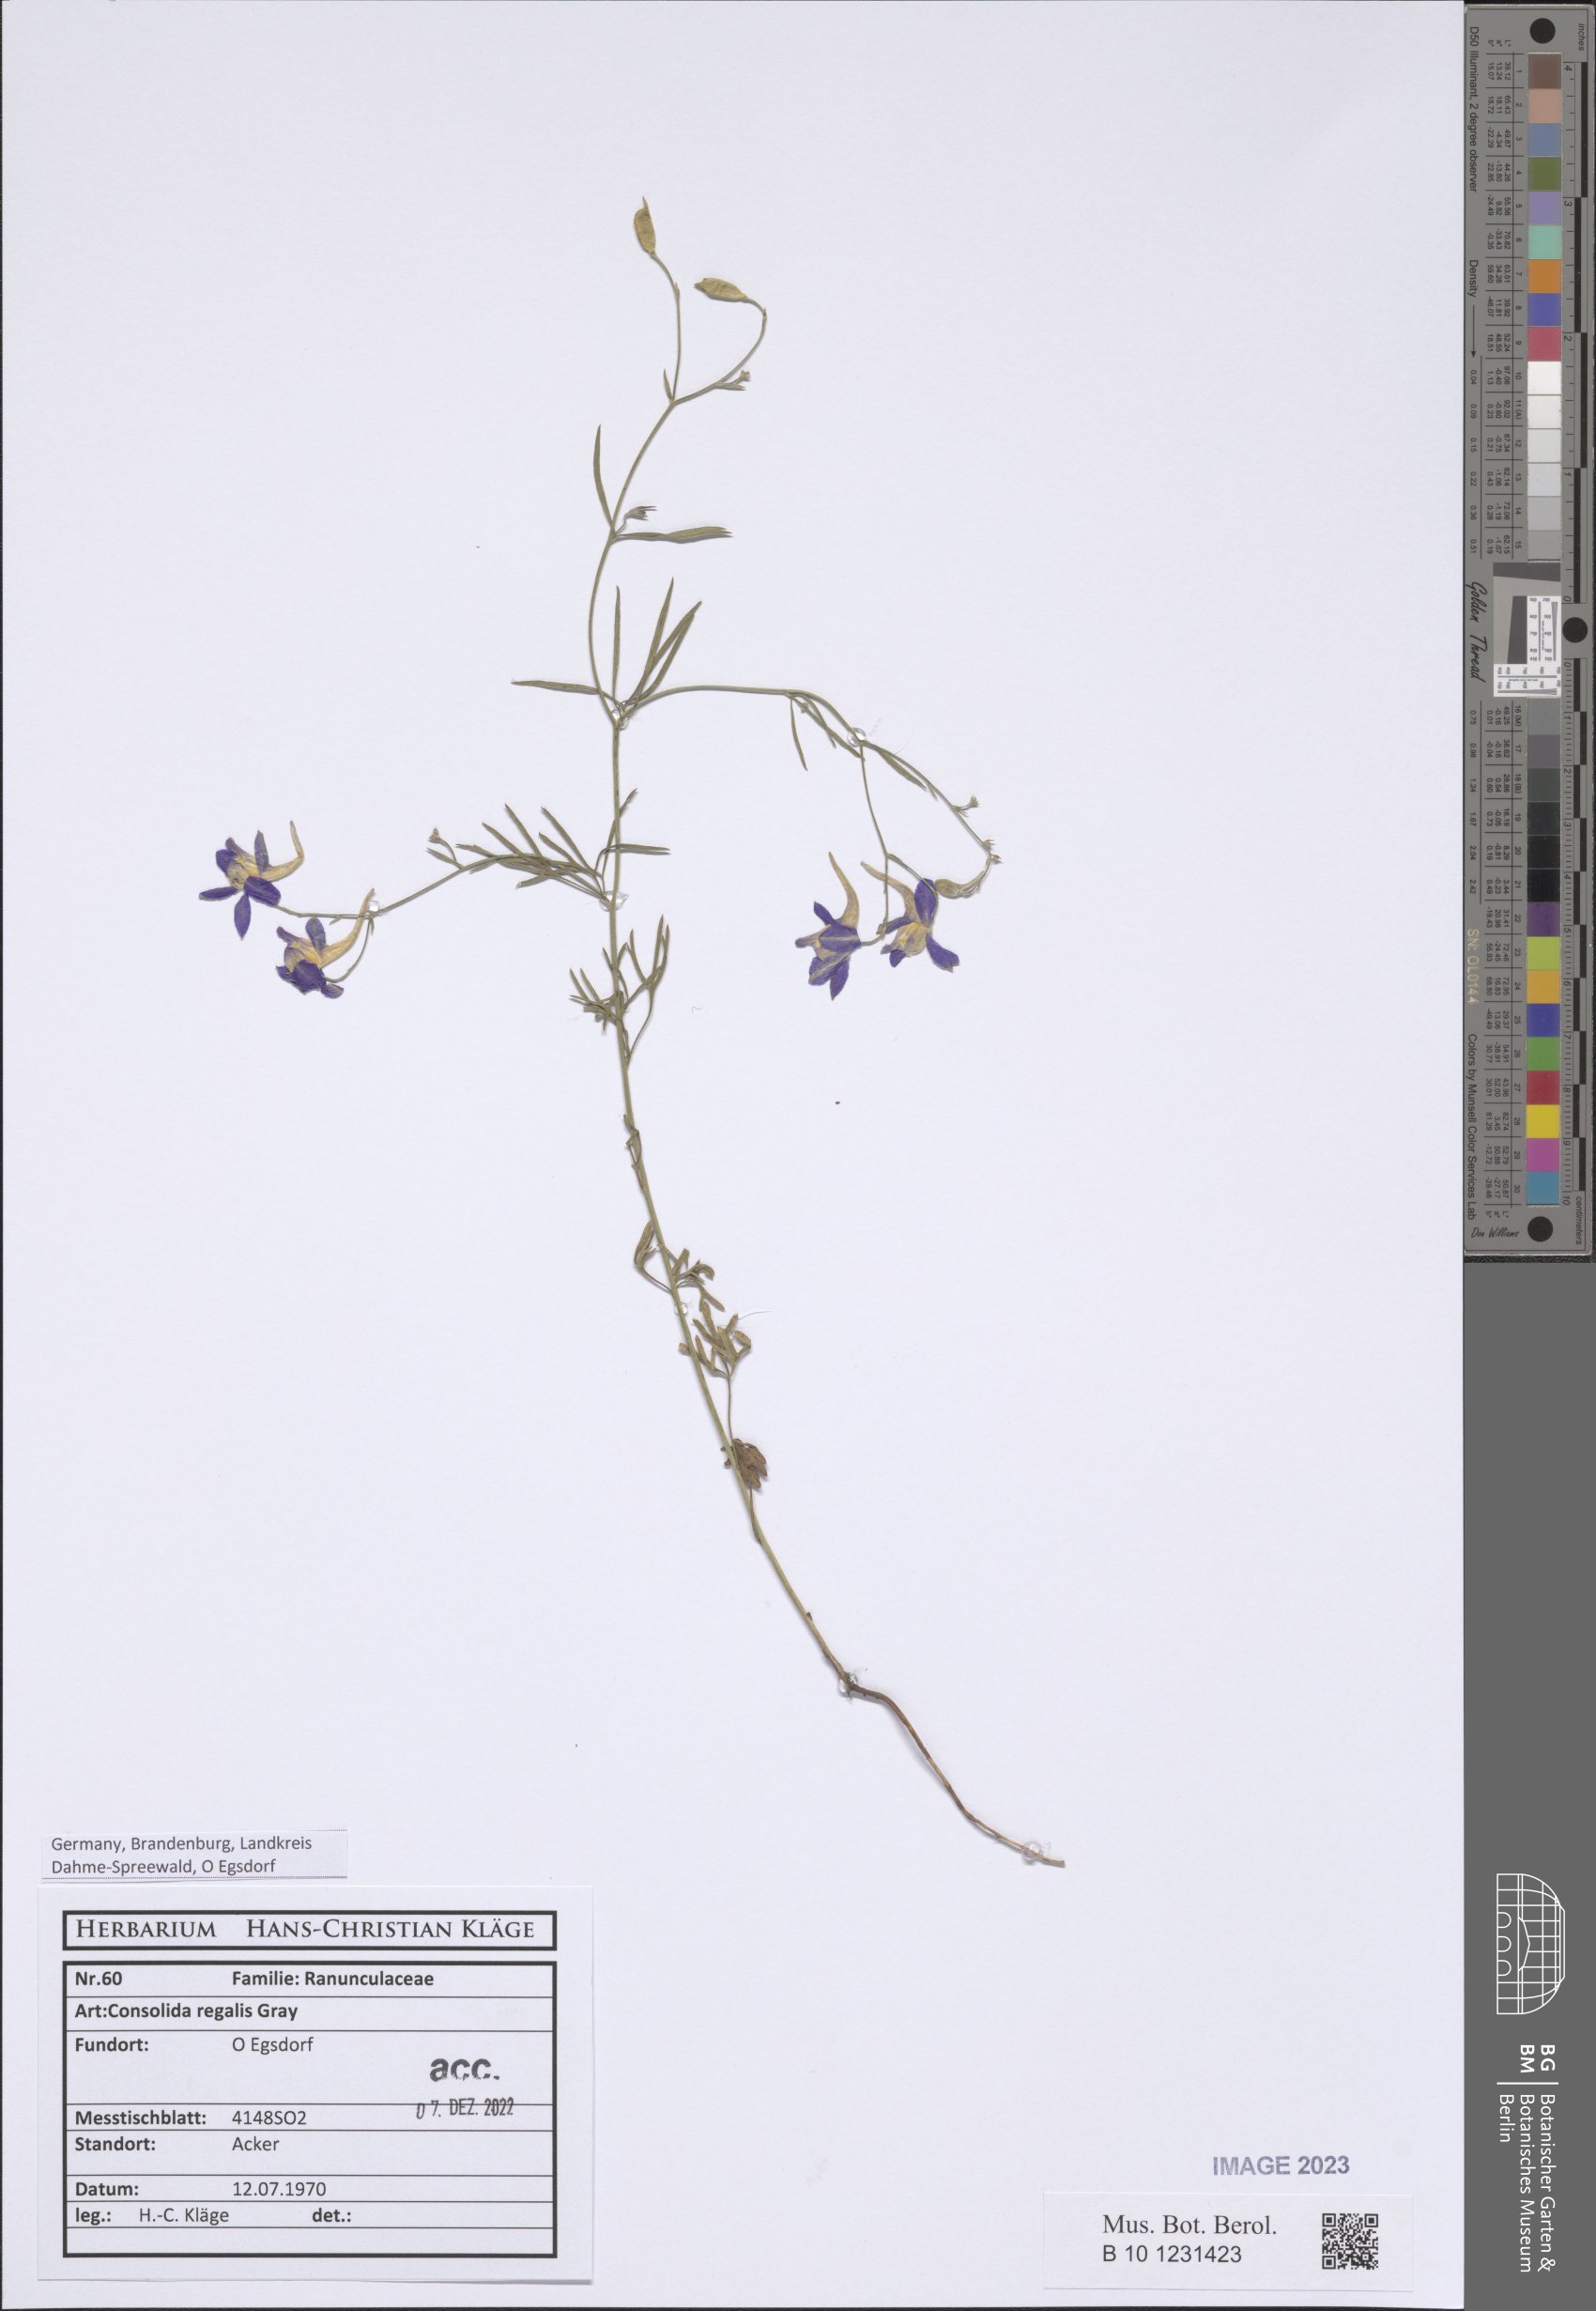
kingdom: Plantae
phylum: Tracheophyta
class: Magnoliopsida
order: Ranunculales
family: Ranunculaceae
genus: Delphinium
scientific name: Delphinium consolida
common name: Branching larkspur
